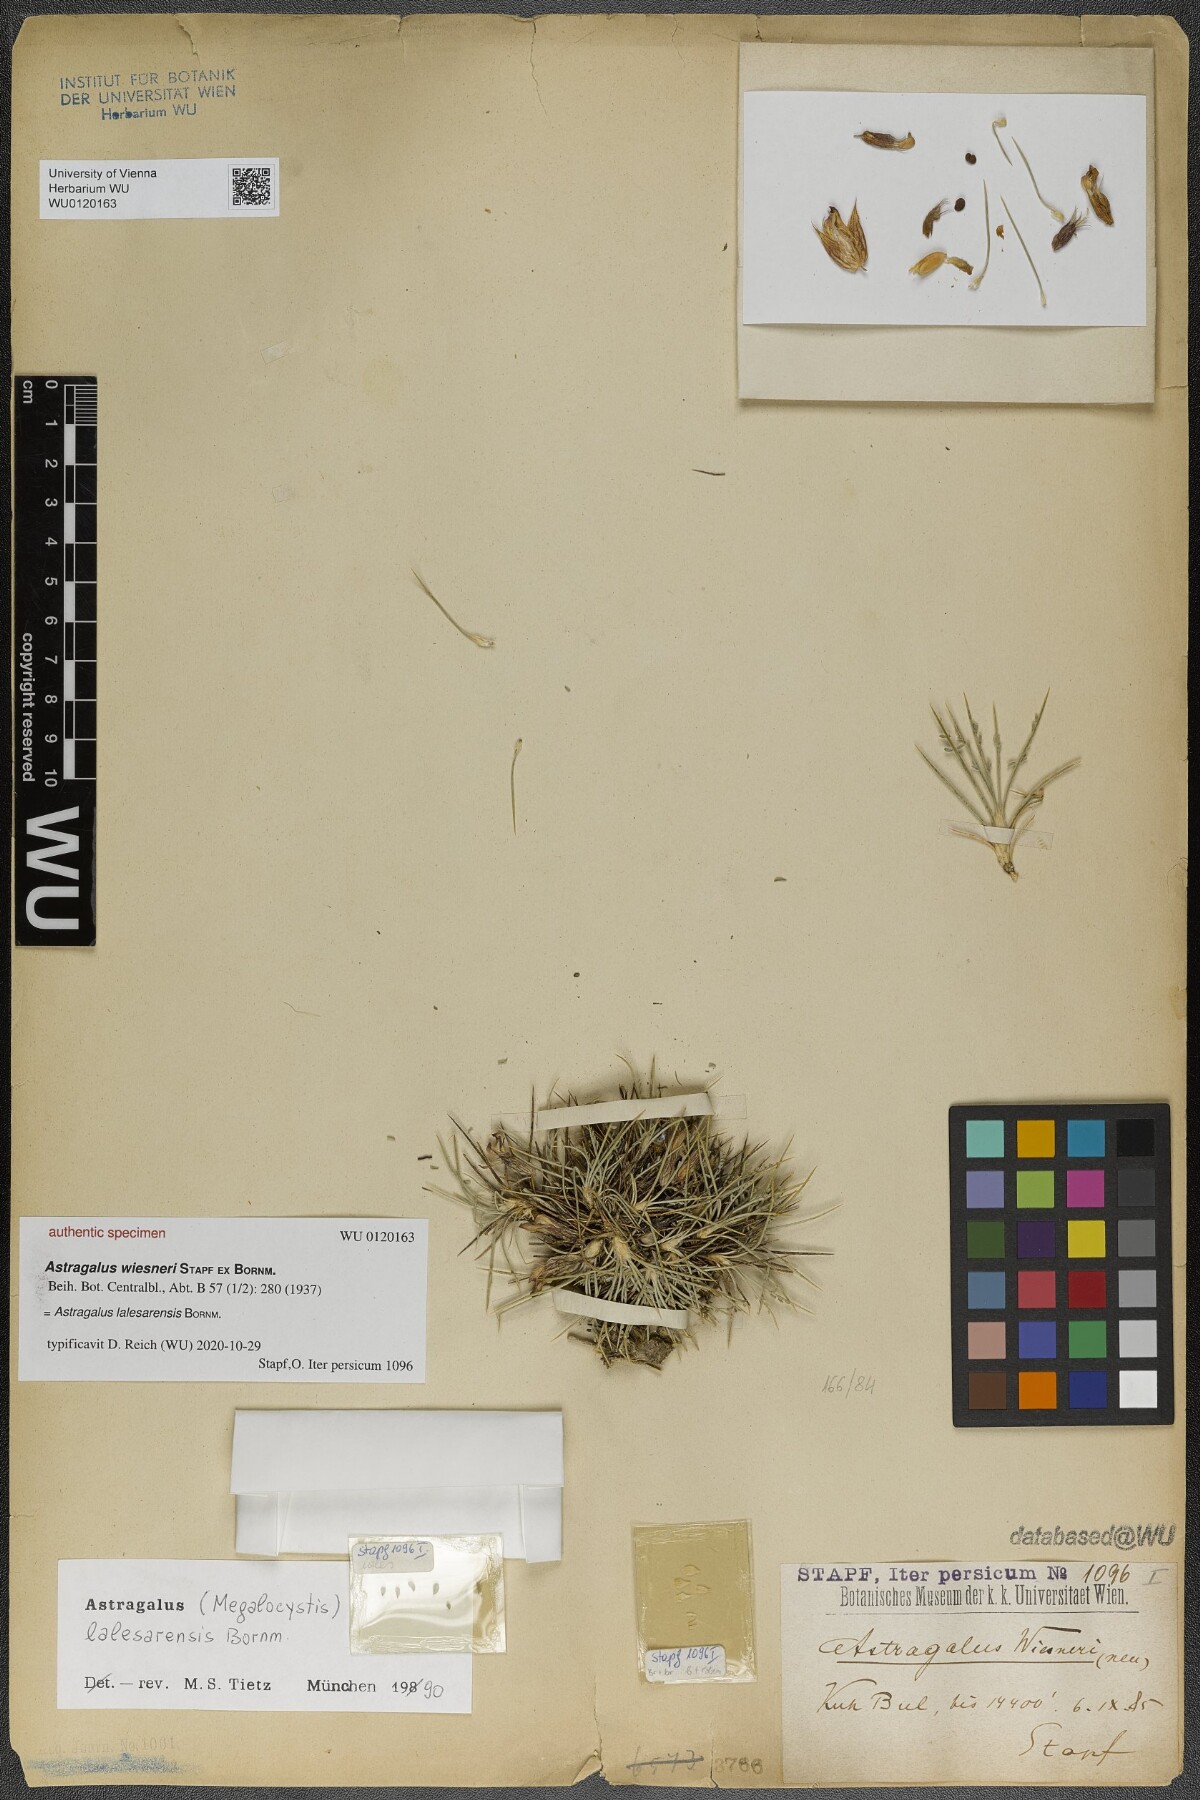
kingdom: Plantae
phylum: Tracheophyta
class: Magnoliopsida
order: Fabales
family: Fabaceae
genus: Astragalus
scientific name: Astragalus lalesarensis
